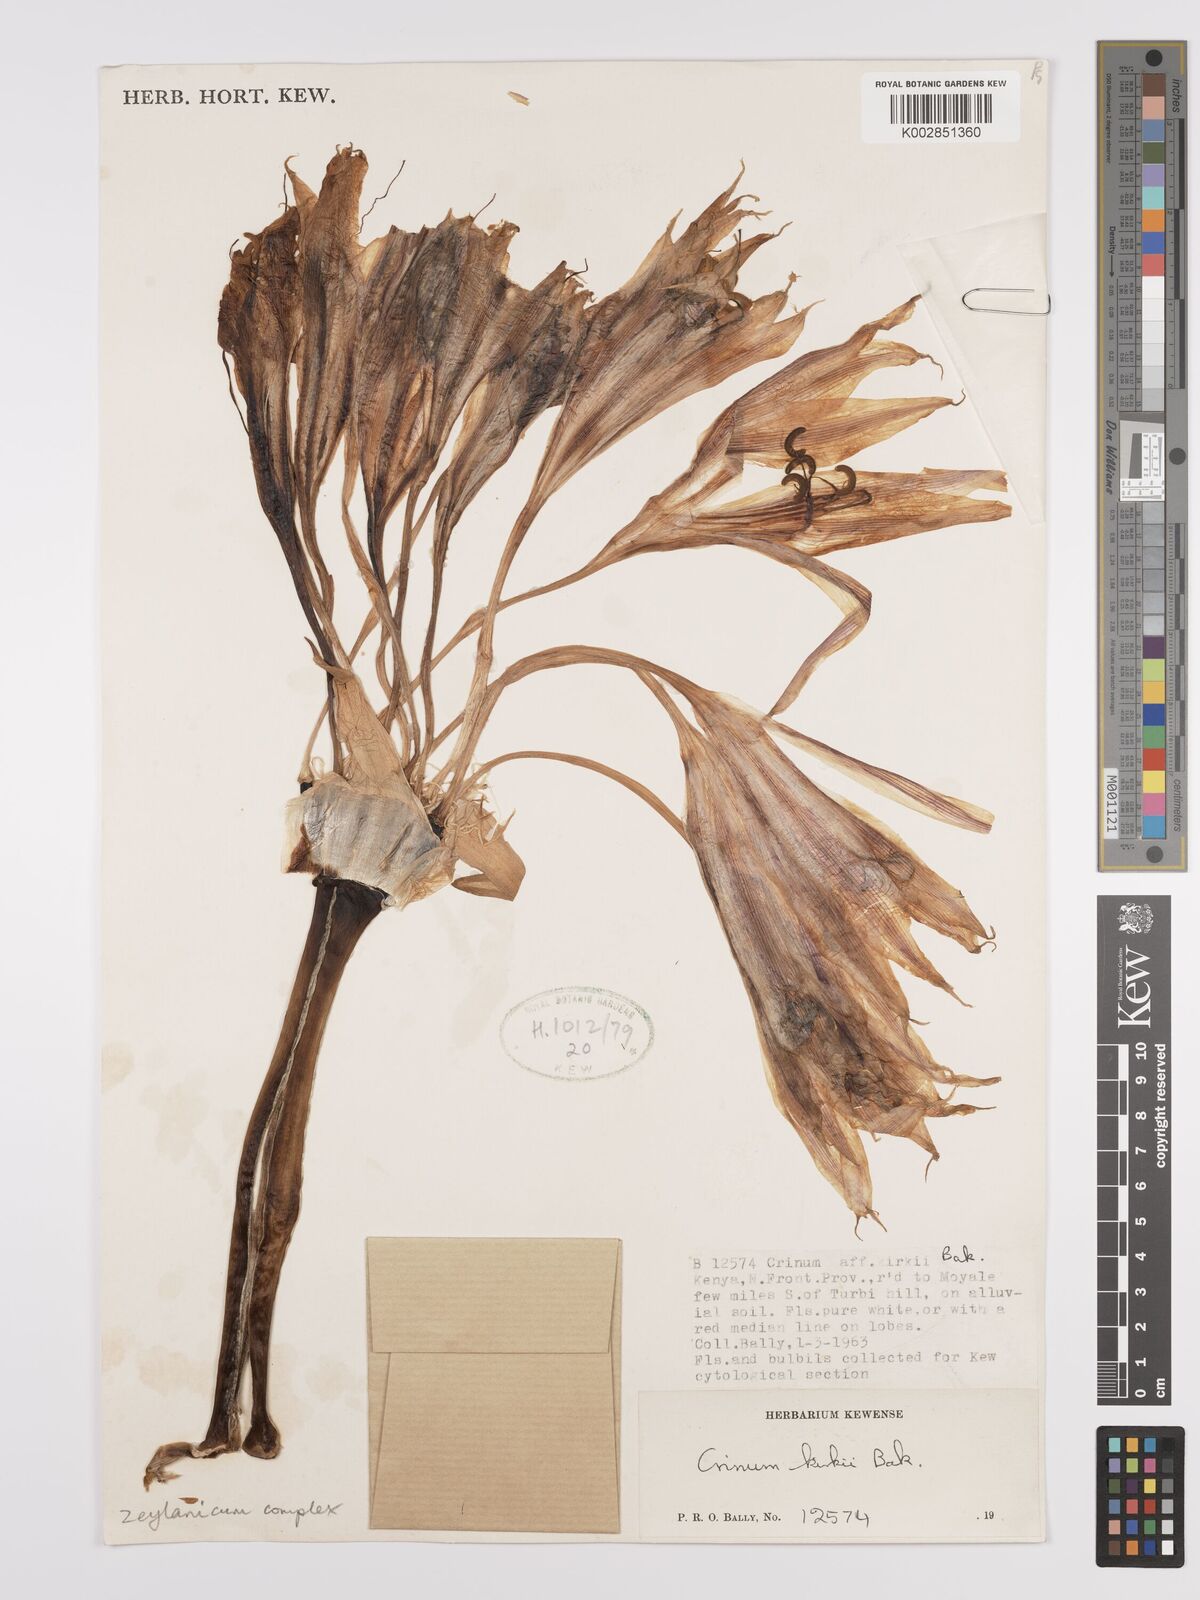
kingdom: Plantae
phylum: Tracheophyta
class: Liliopsida
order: Asparagales
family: Amaryllidaceae
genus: Crinum
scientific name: Crinum zeylanicum
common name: Ceylon swamplily
